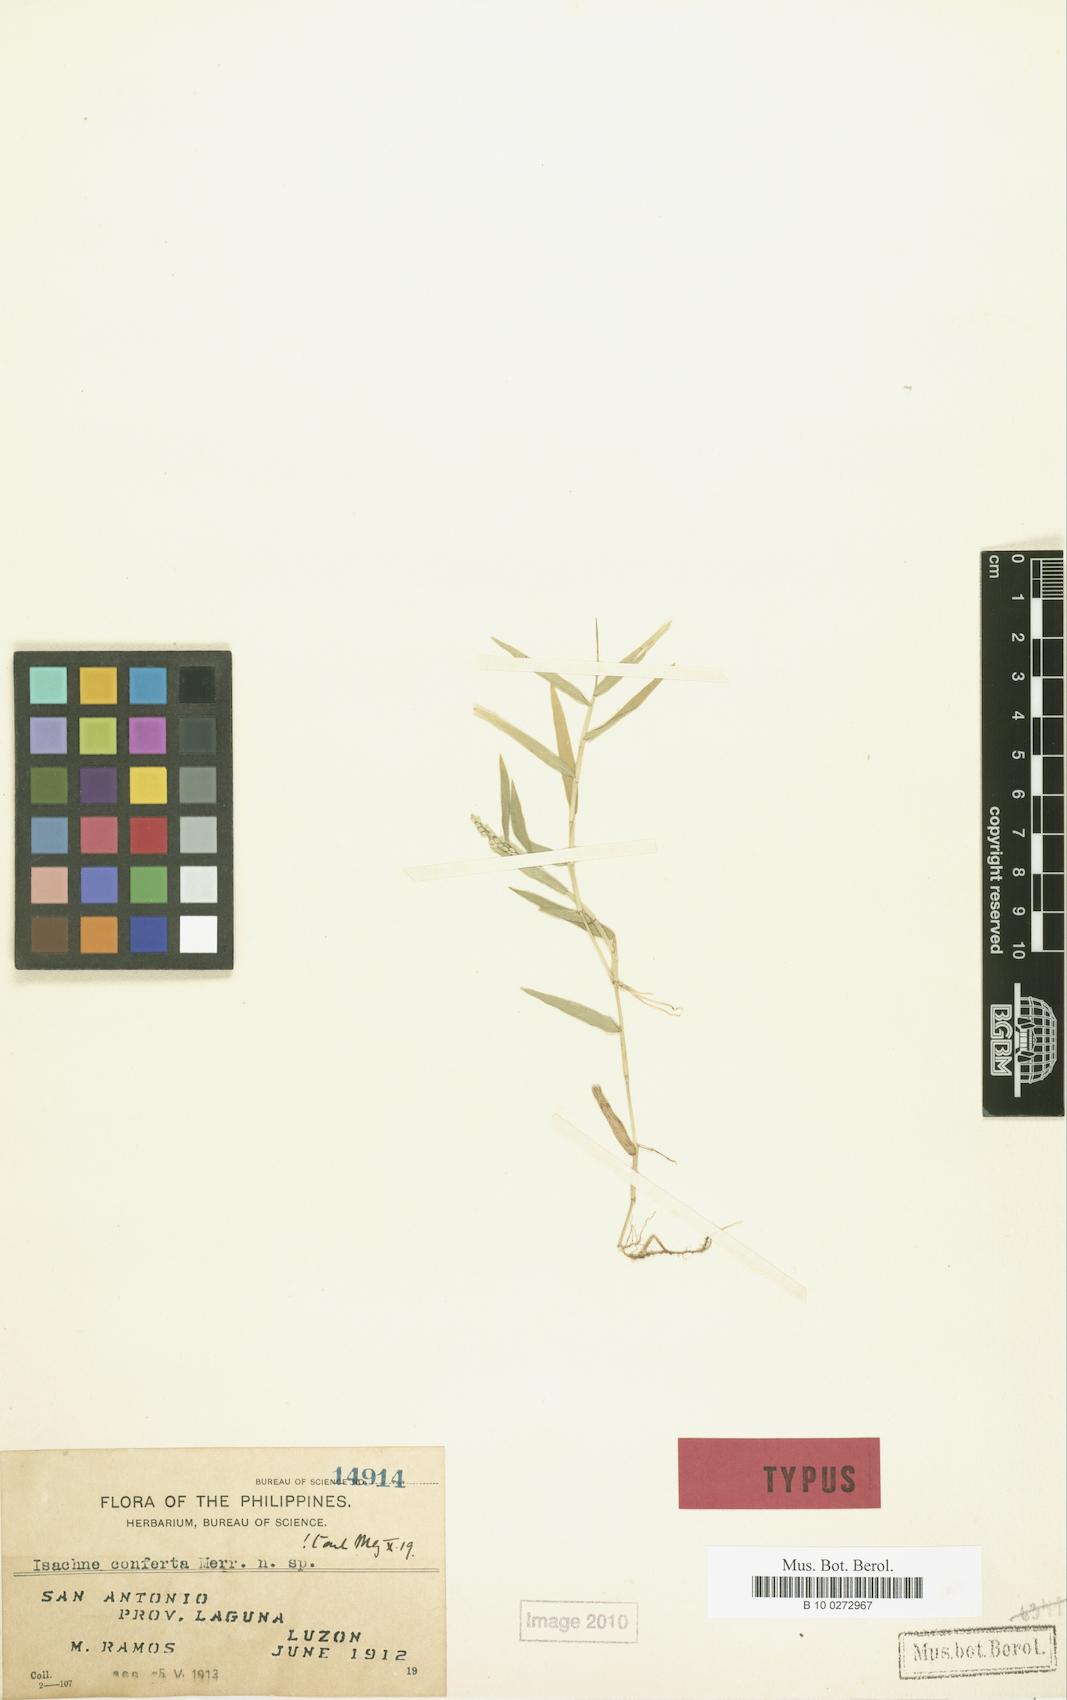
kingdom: Plantae
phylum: Tracheophyta
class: Liliopsida
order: Poales
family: Poaceae
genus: Isachne
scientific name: Isachne minutula
